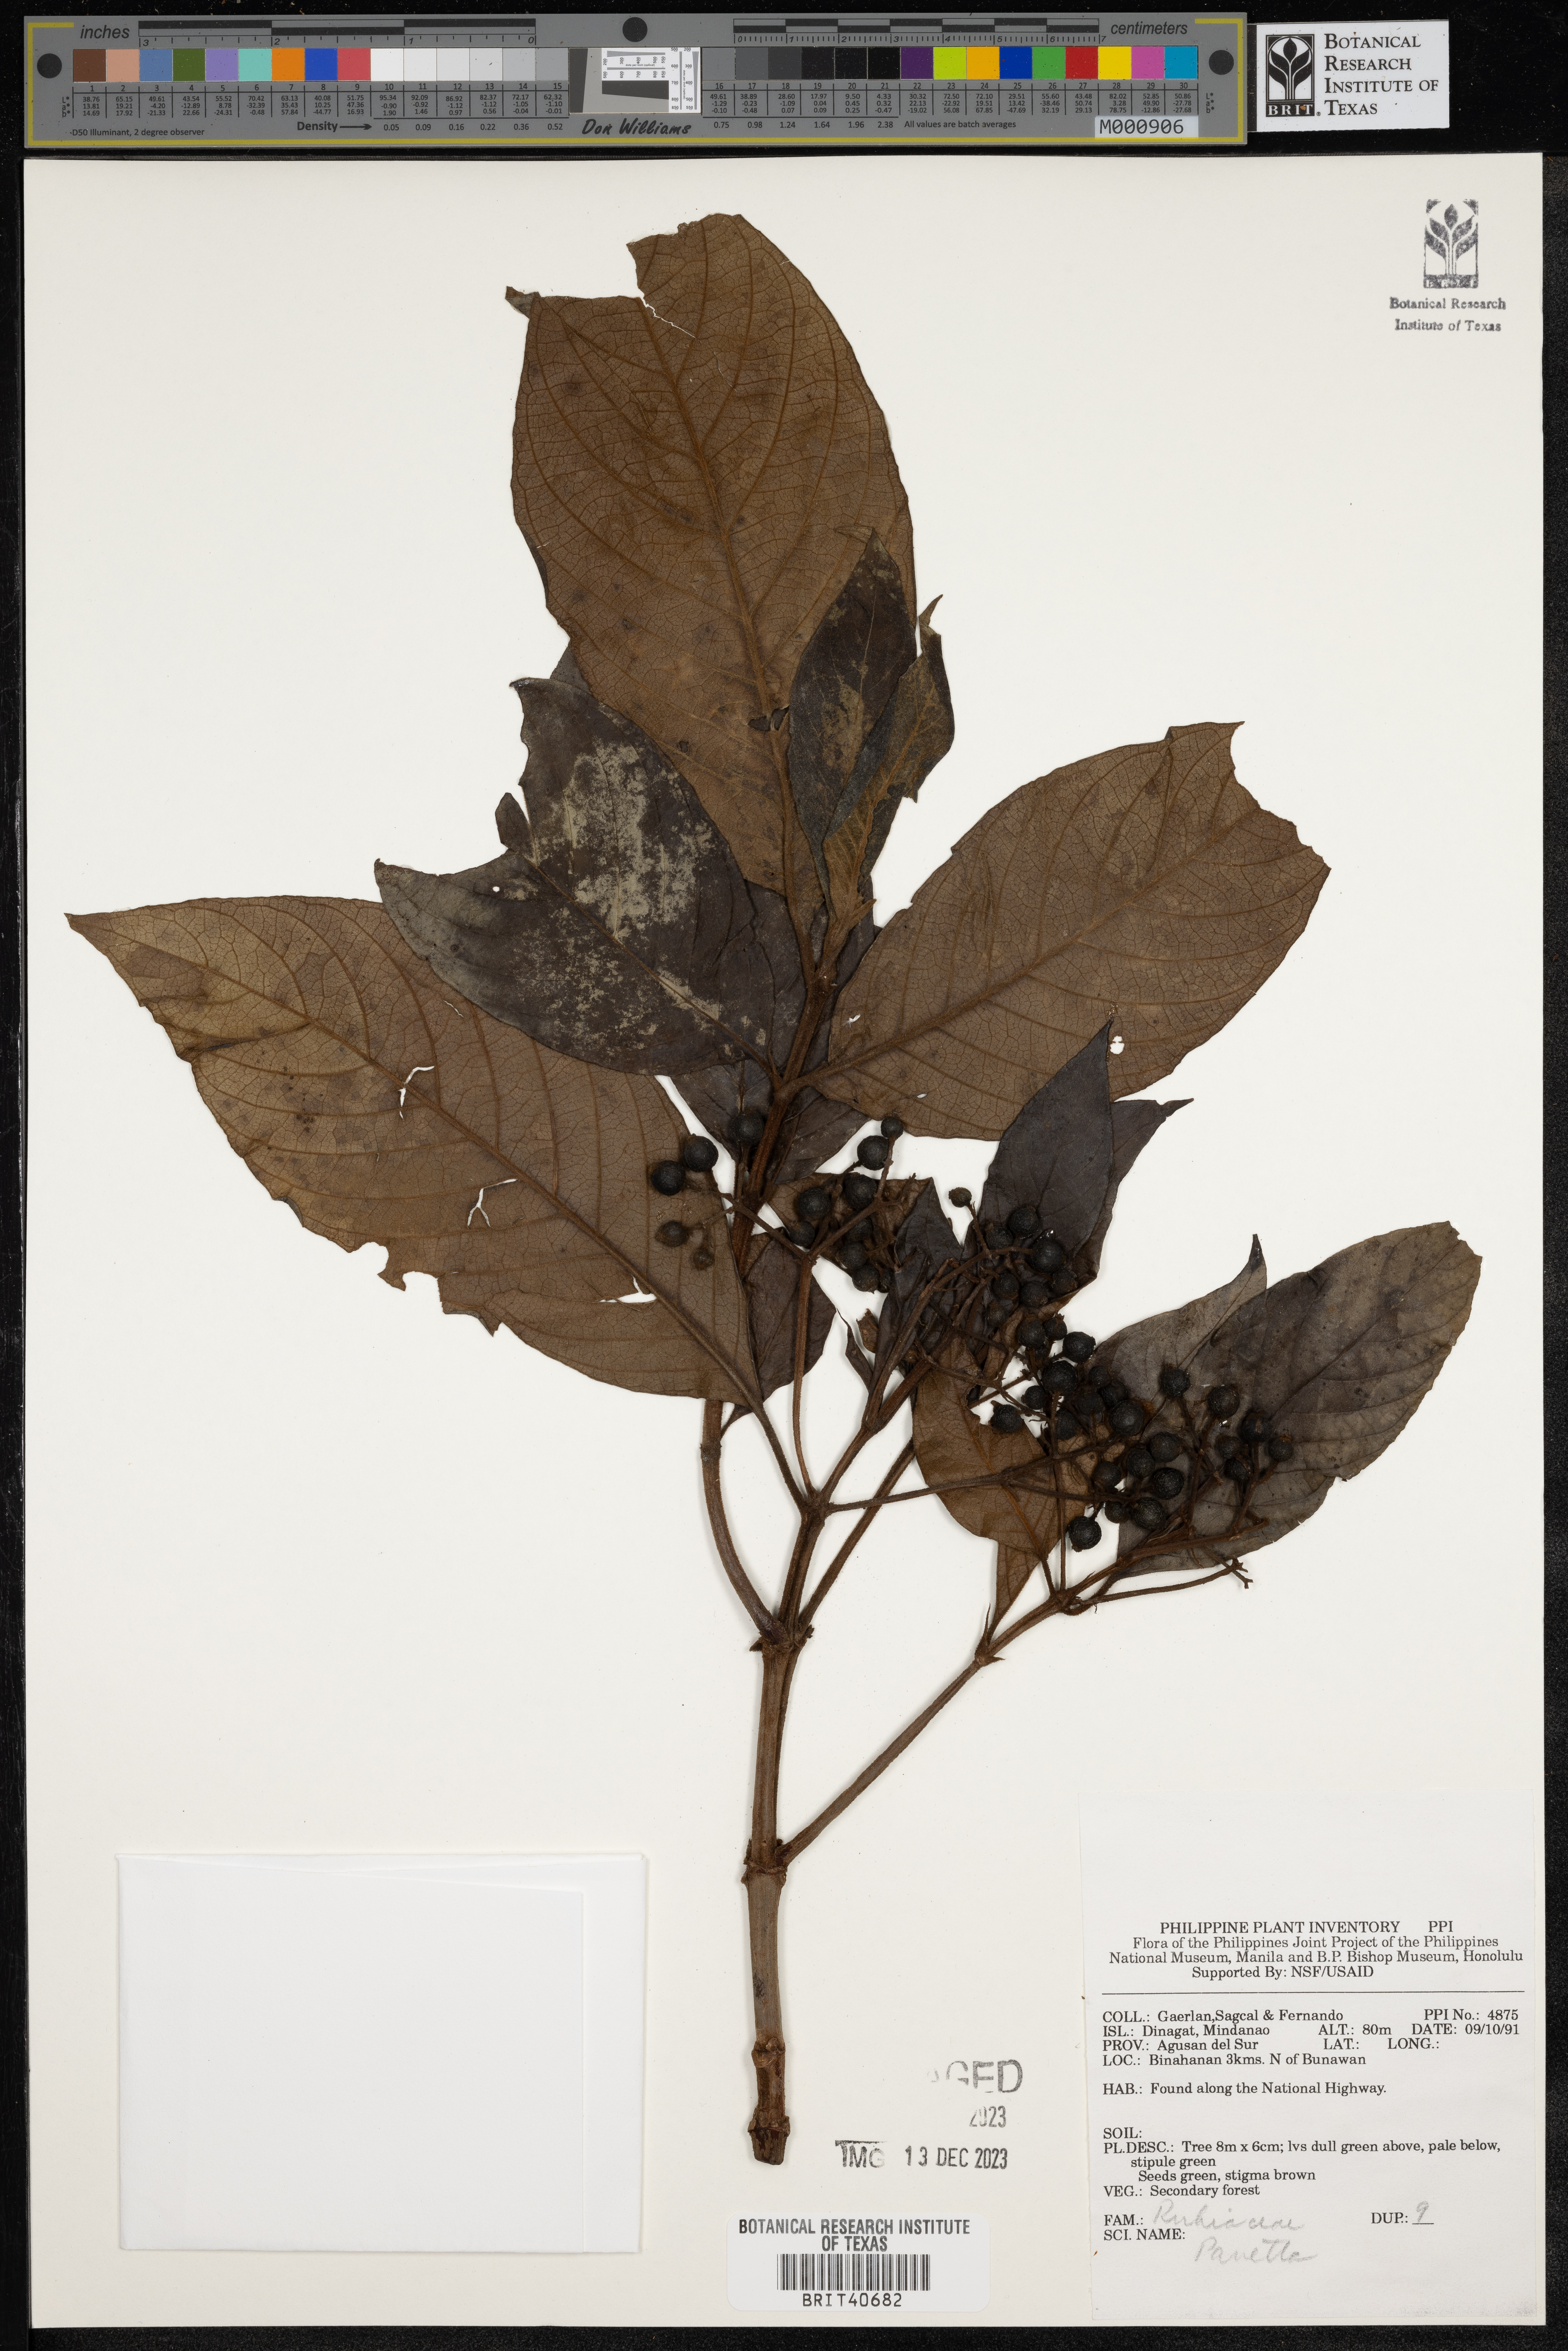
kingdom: Plantae
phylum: Tracheophyta
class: Magnoliopsida
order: Gentianales
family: Rubiaceae
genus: Pavetta
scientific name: Pavetta
